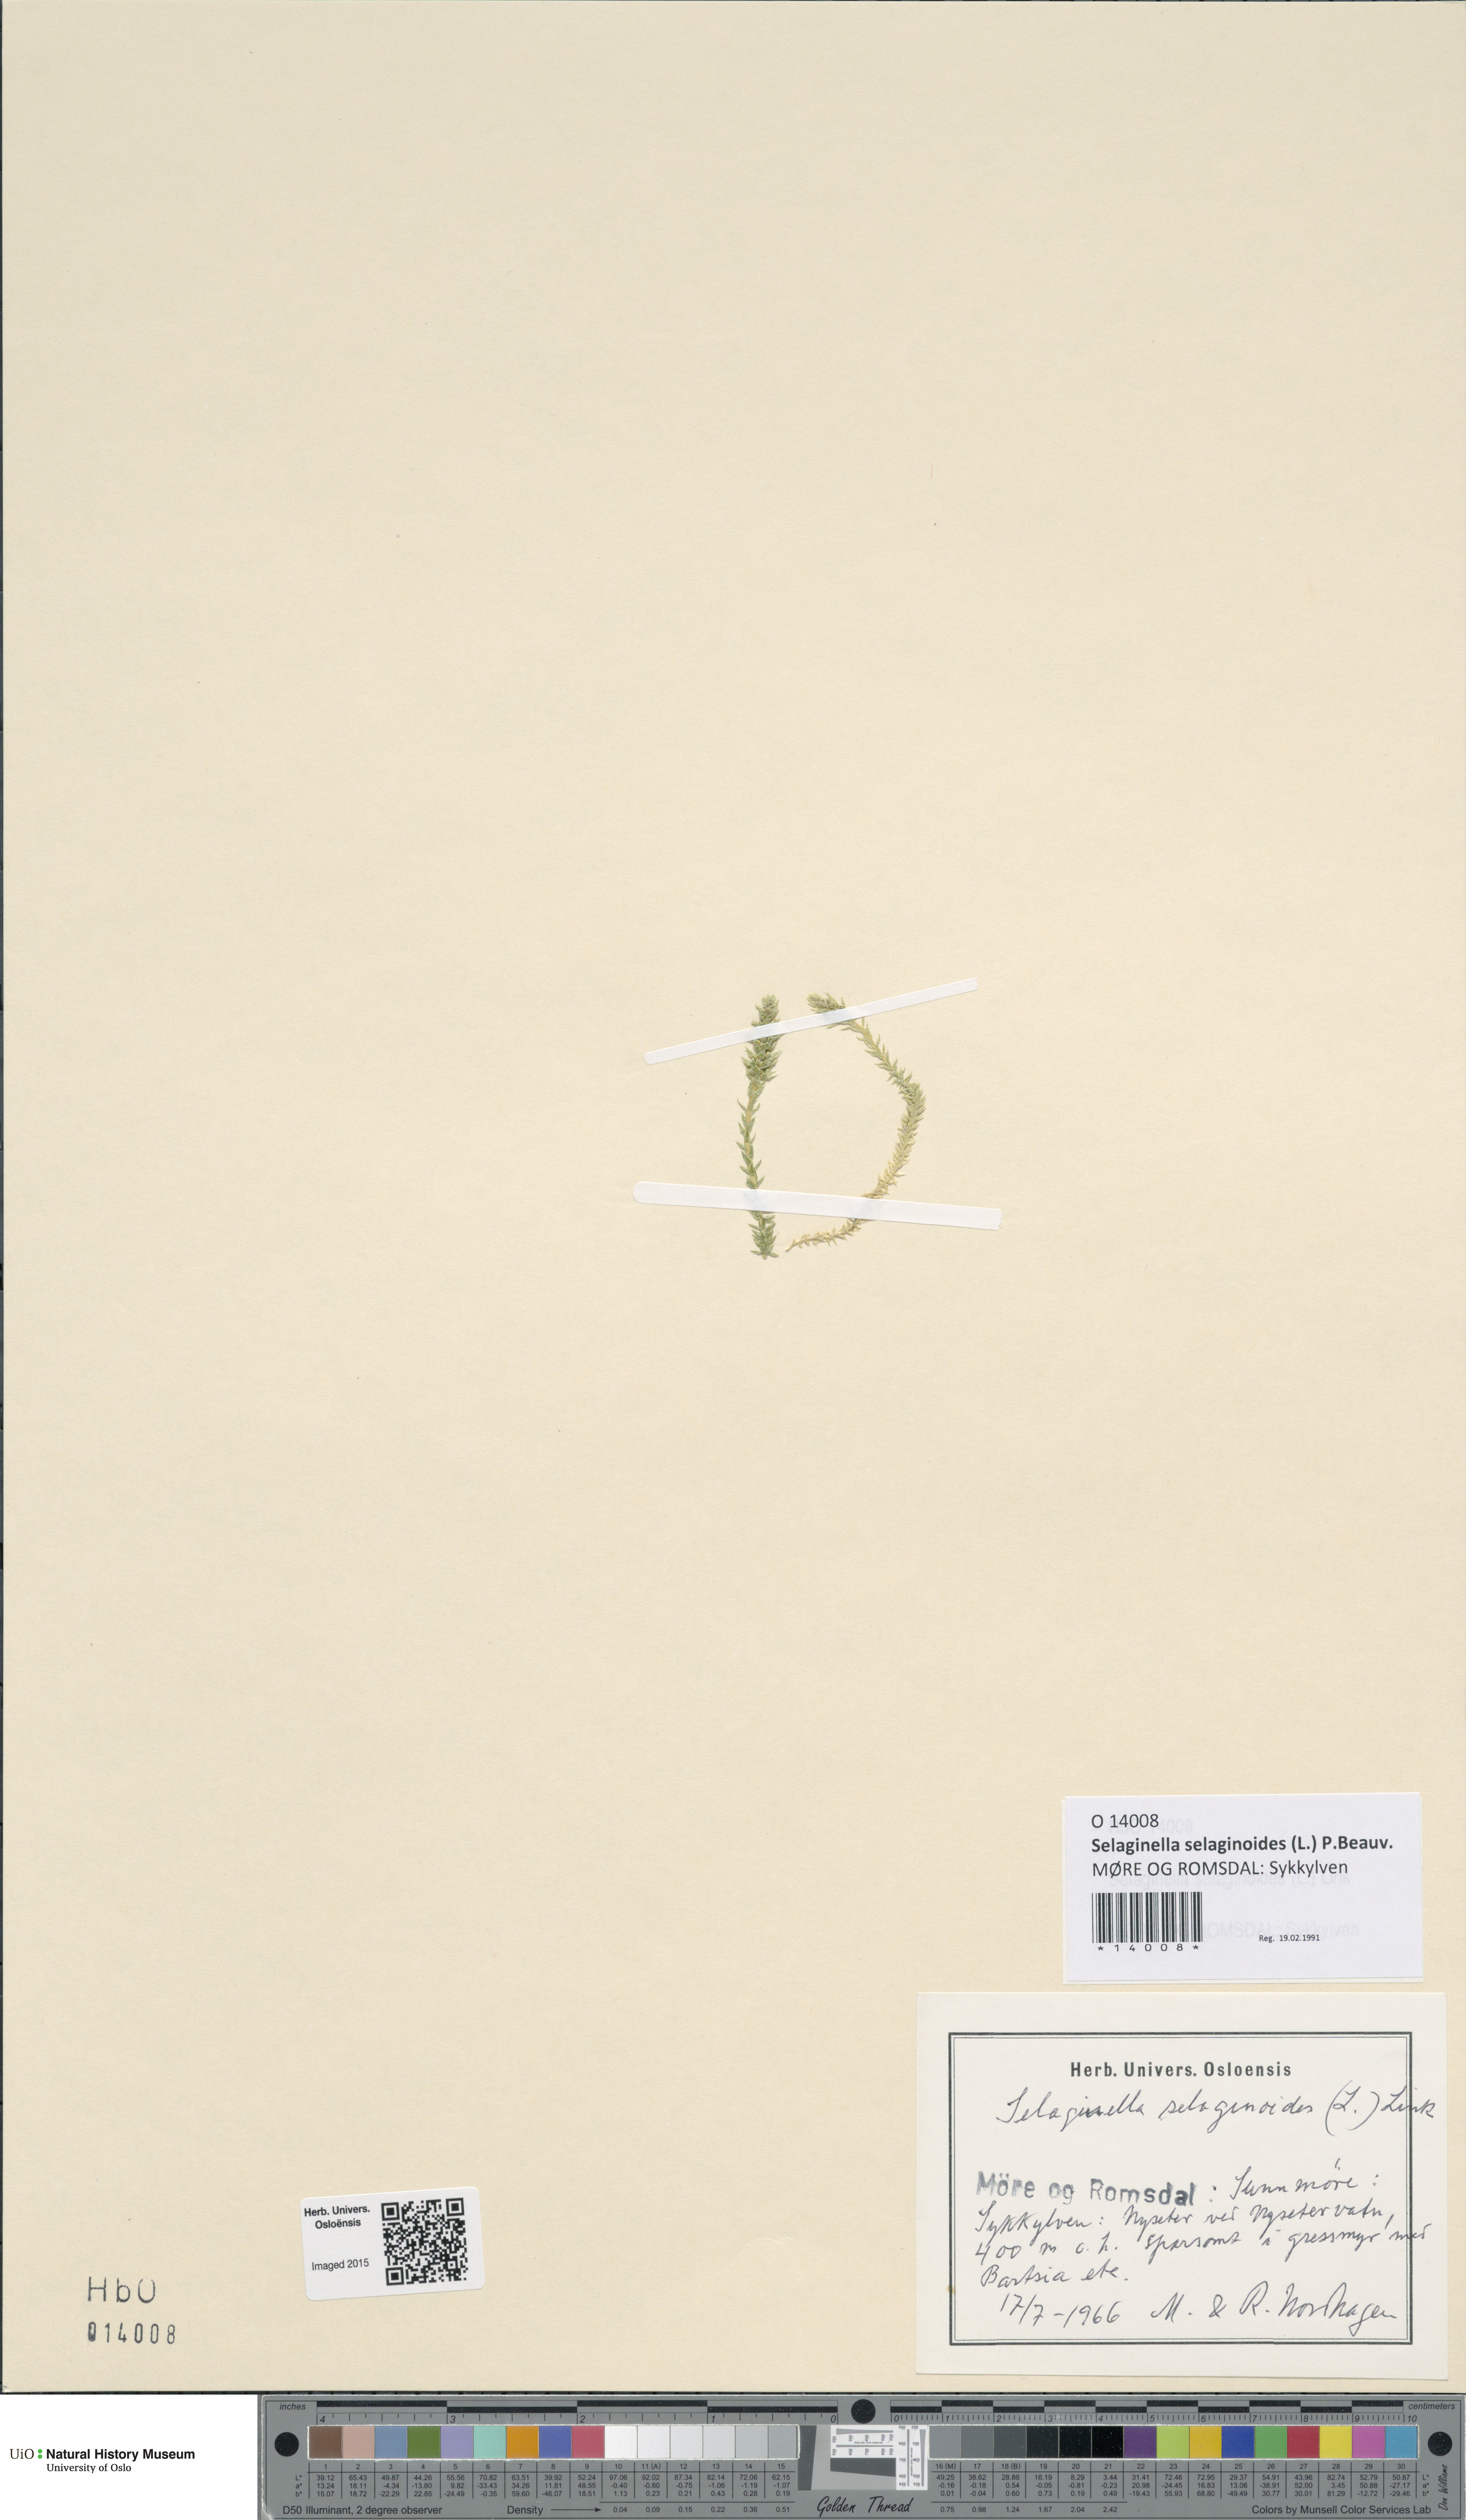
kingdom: Plantae
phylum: Tracheophyta
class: Lycopodiopsida
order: Selaginellales
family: Selaginellaceae
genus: Selaginella
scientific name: Selaginella selaginoides
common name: Prickly mountain-moss
